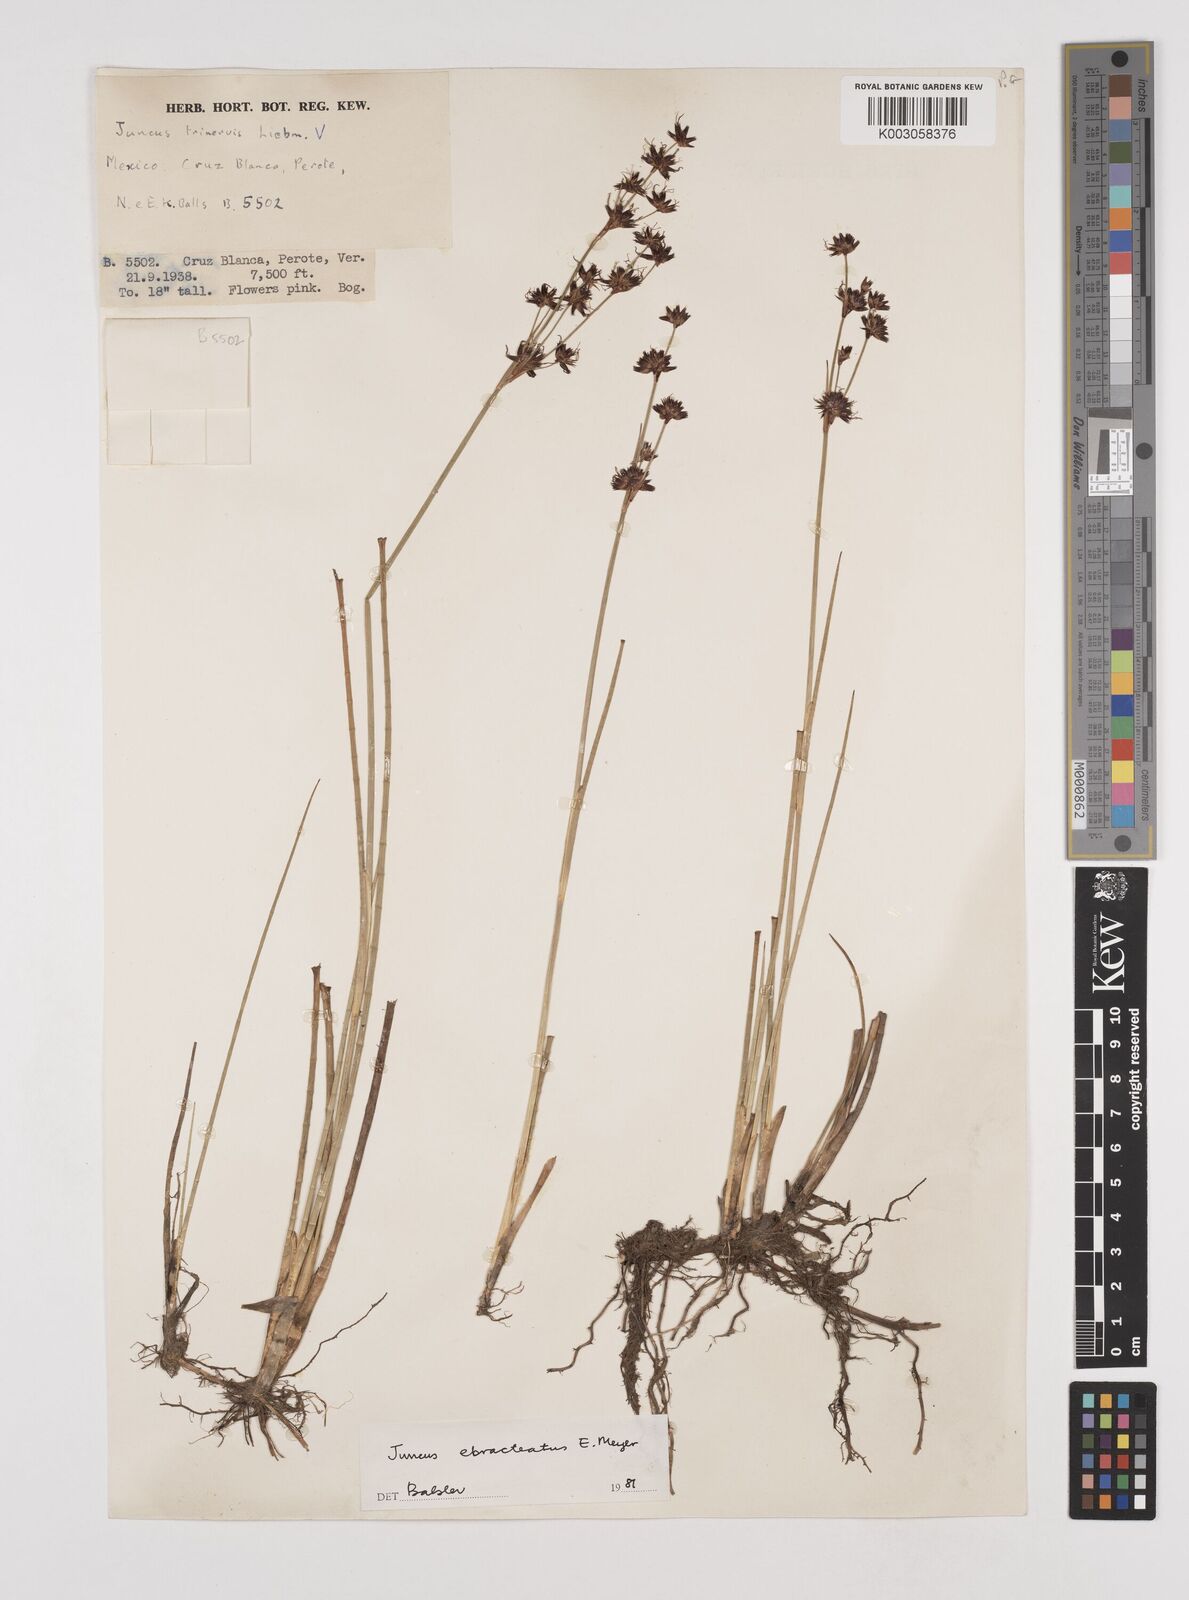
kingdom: Plantae
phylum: Tracheophyta
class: Liliopsida
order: Poales
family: Juncaceae
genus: Juncus
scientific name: Juncus ebracteatus
